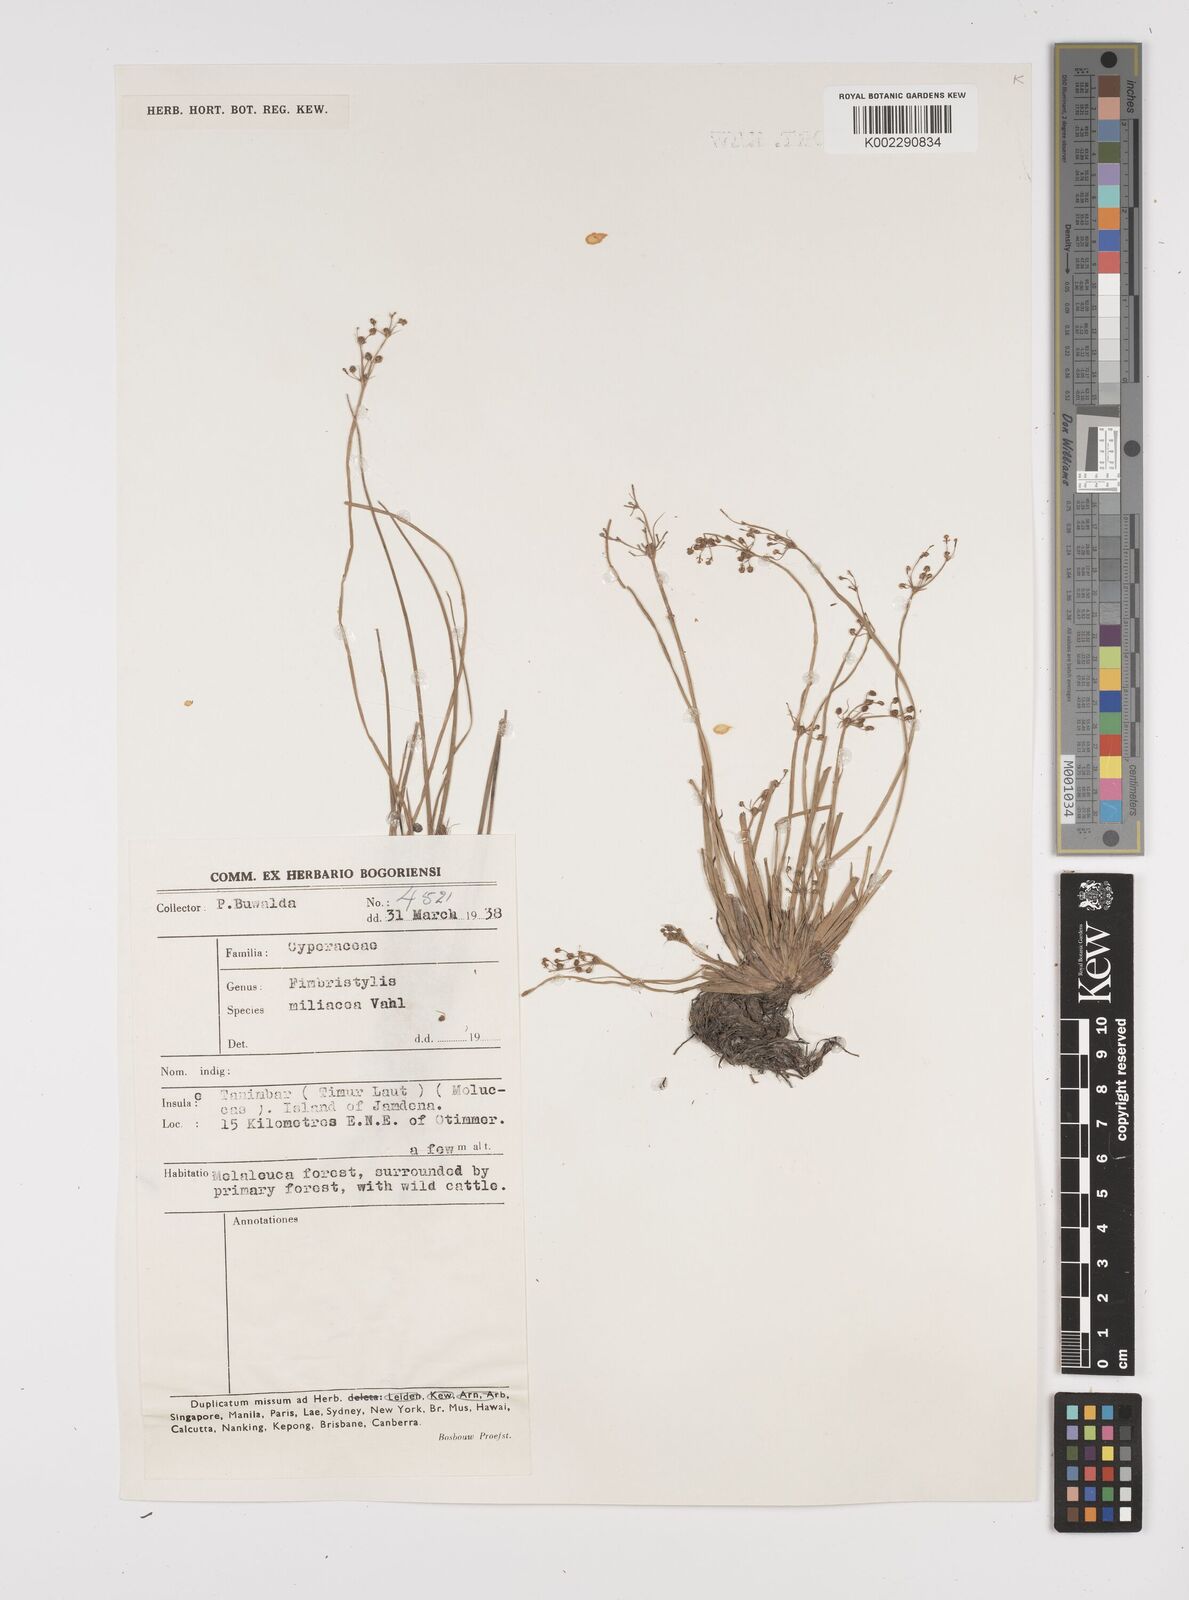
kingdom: Plantae
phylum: Tracheophyta
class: Liliopsida
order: Poales
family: Cyperaceae
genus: Fimbristylis
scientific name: Fimbristylis littoralis
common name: Fimbry
